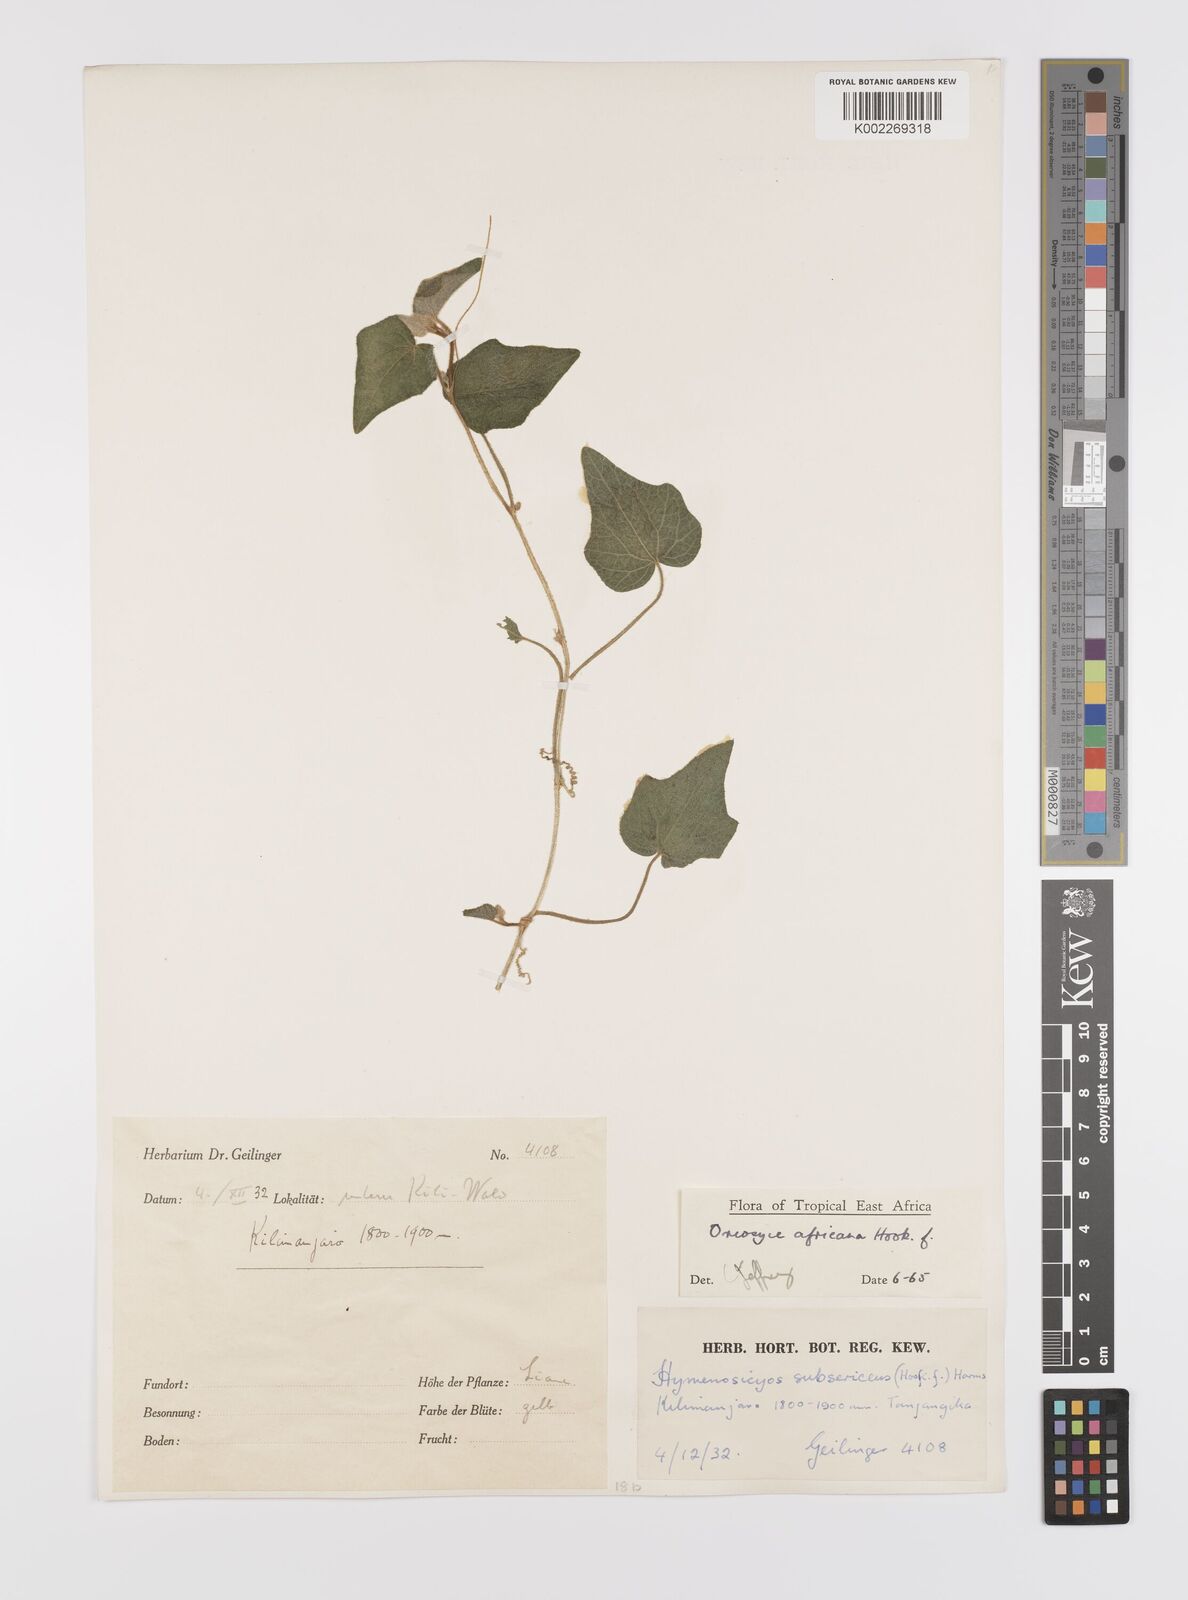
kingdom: Plantae
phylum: Tracheophyta
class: Magnoliopsida
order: Cucurbitales
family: Cucurbitaceae
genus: Cucumis
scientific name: Cucumis oreosyce
